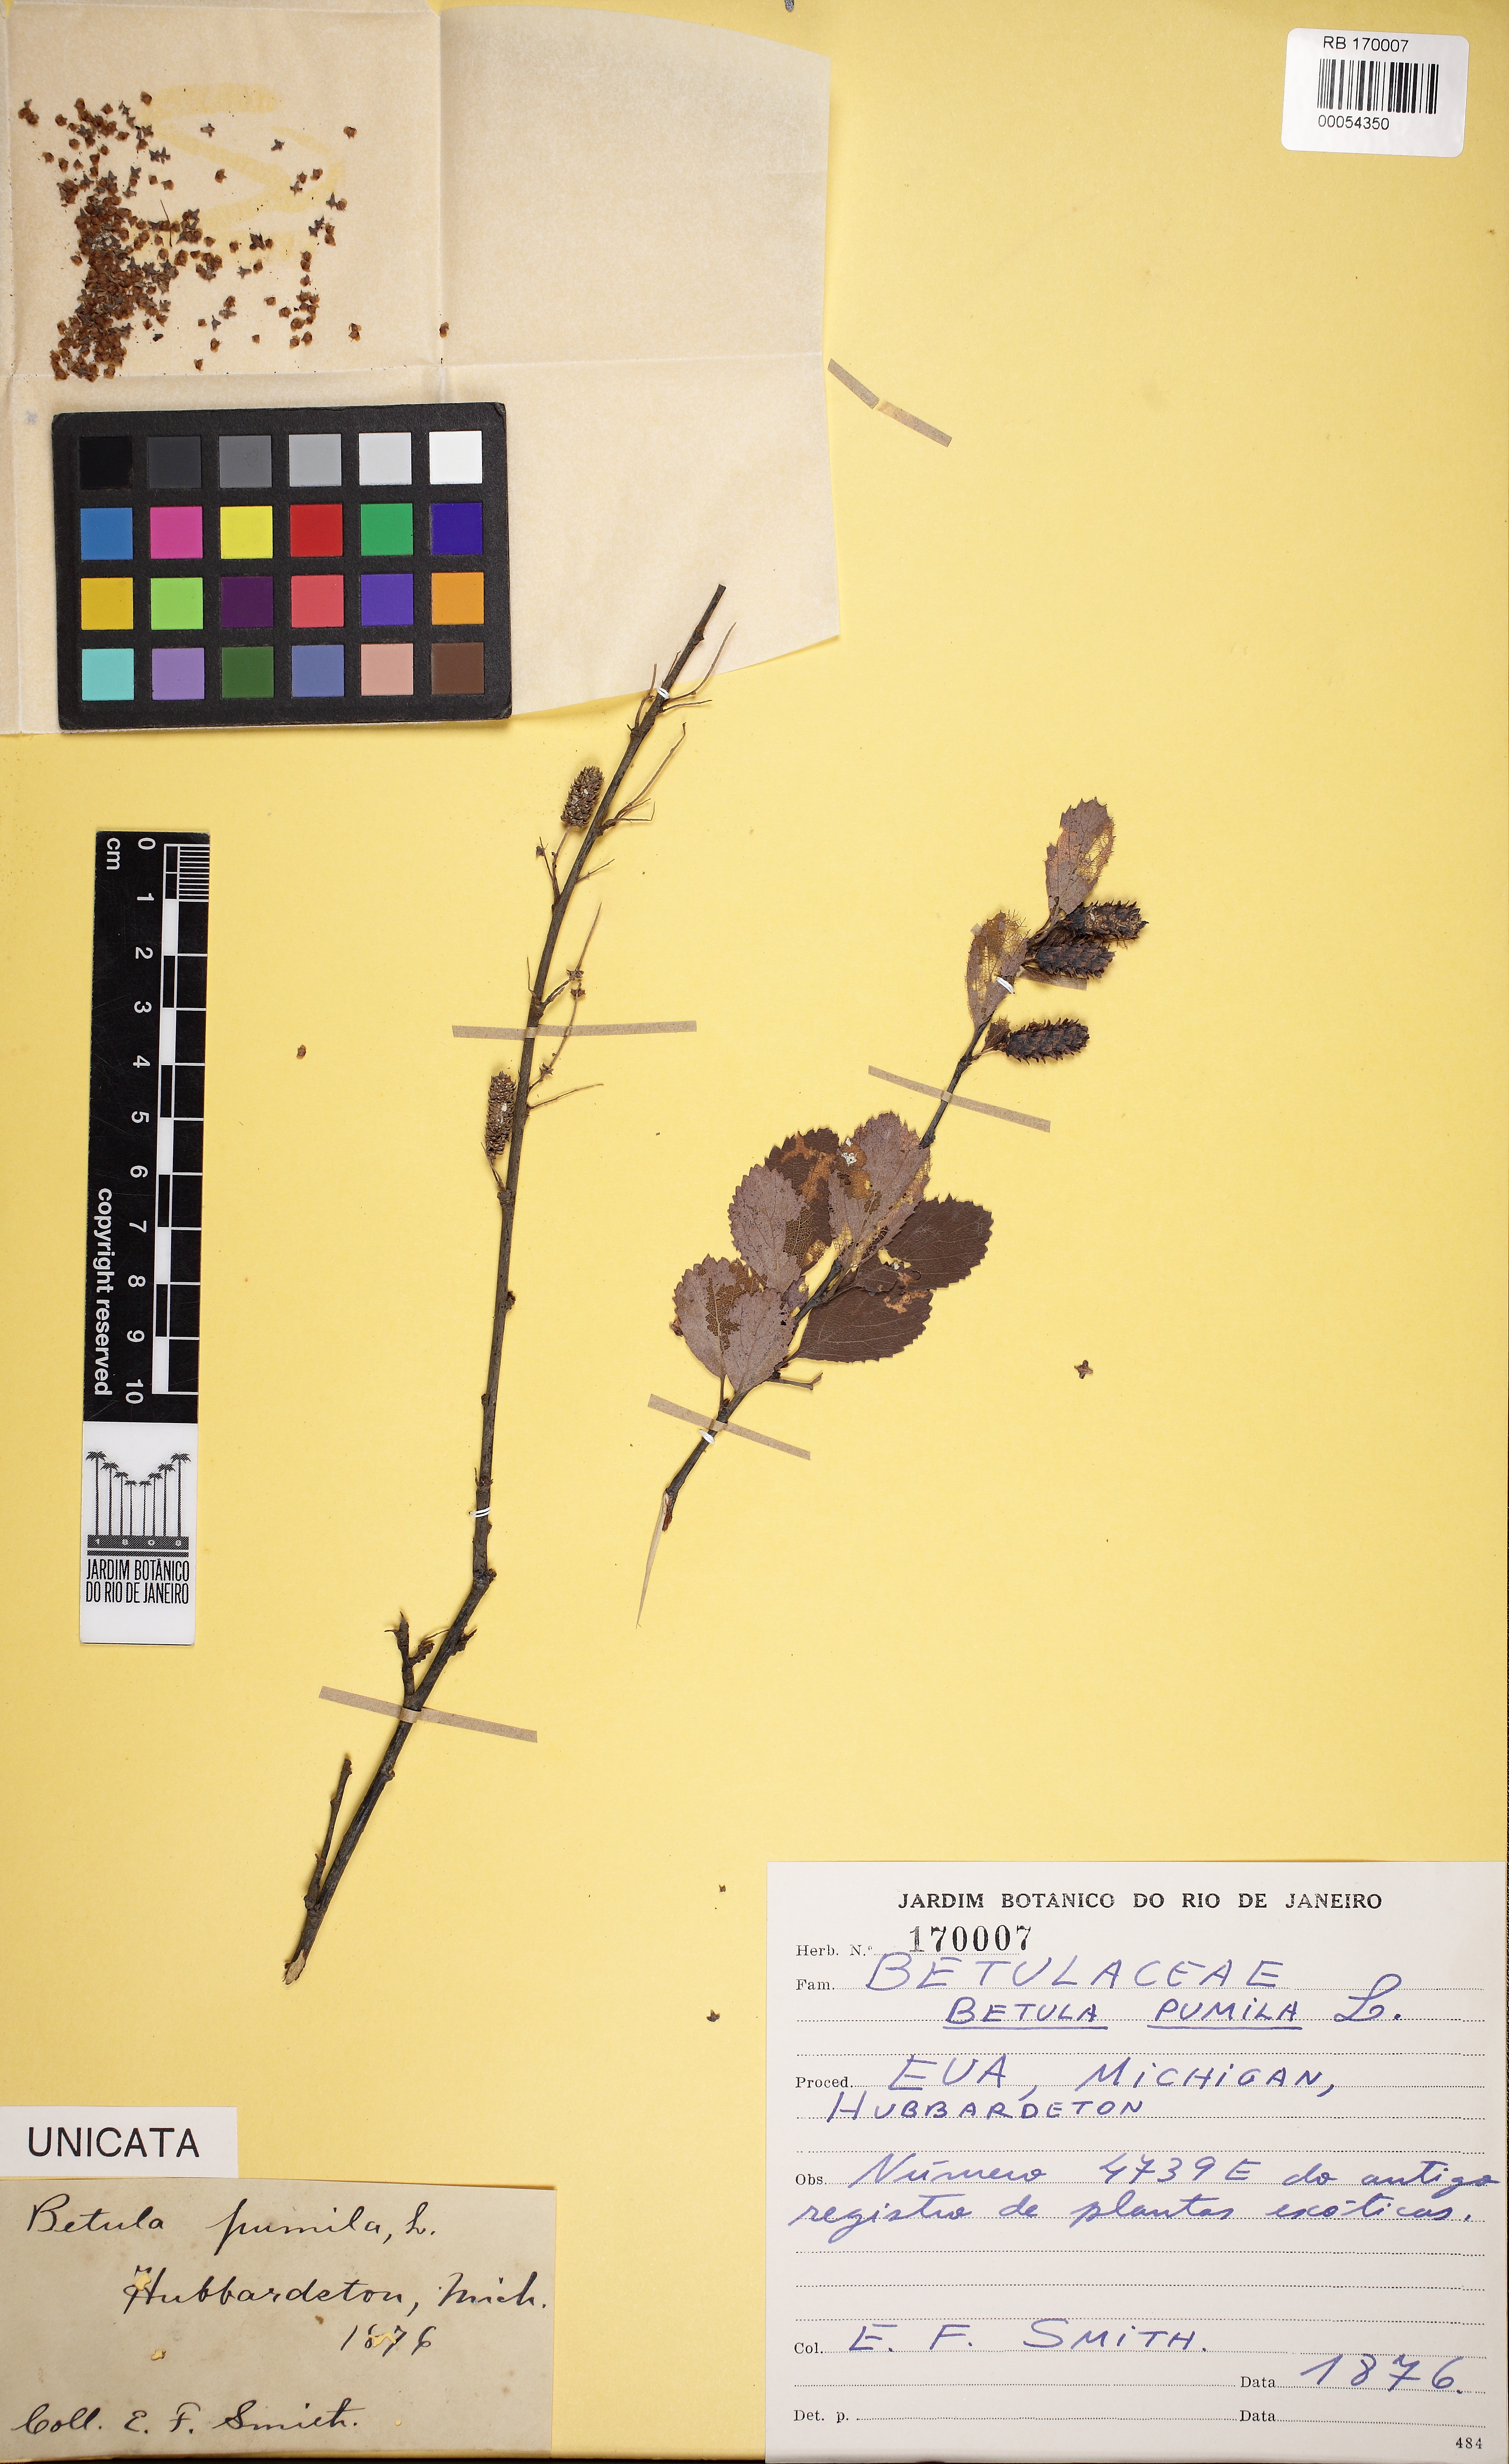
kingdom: Plantae
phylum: Tracheophyta
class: Magnoliopsida
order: Fagales
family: Betulaceae
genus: Betula
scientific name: Betula pumila
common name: Bog birch
